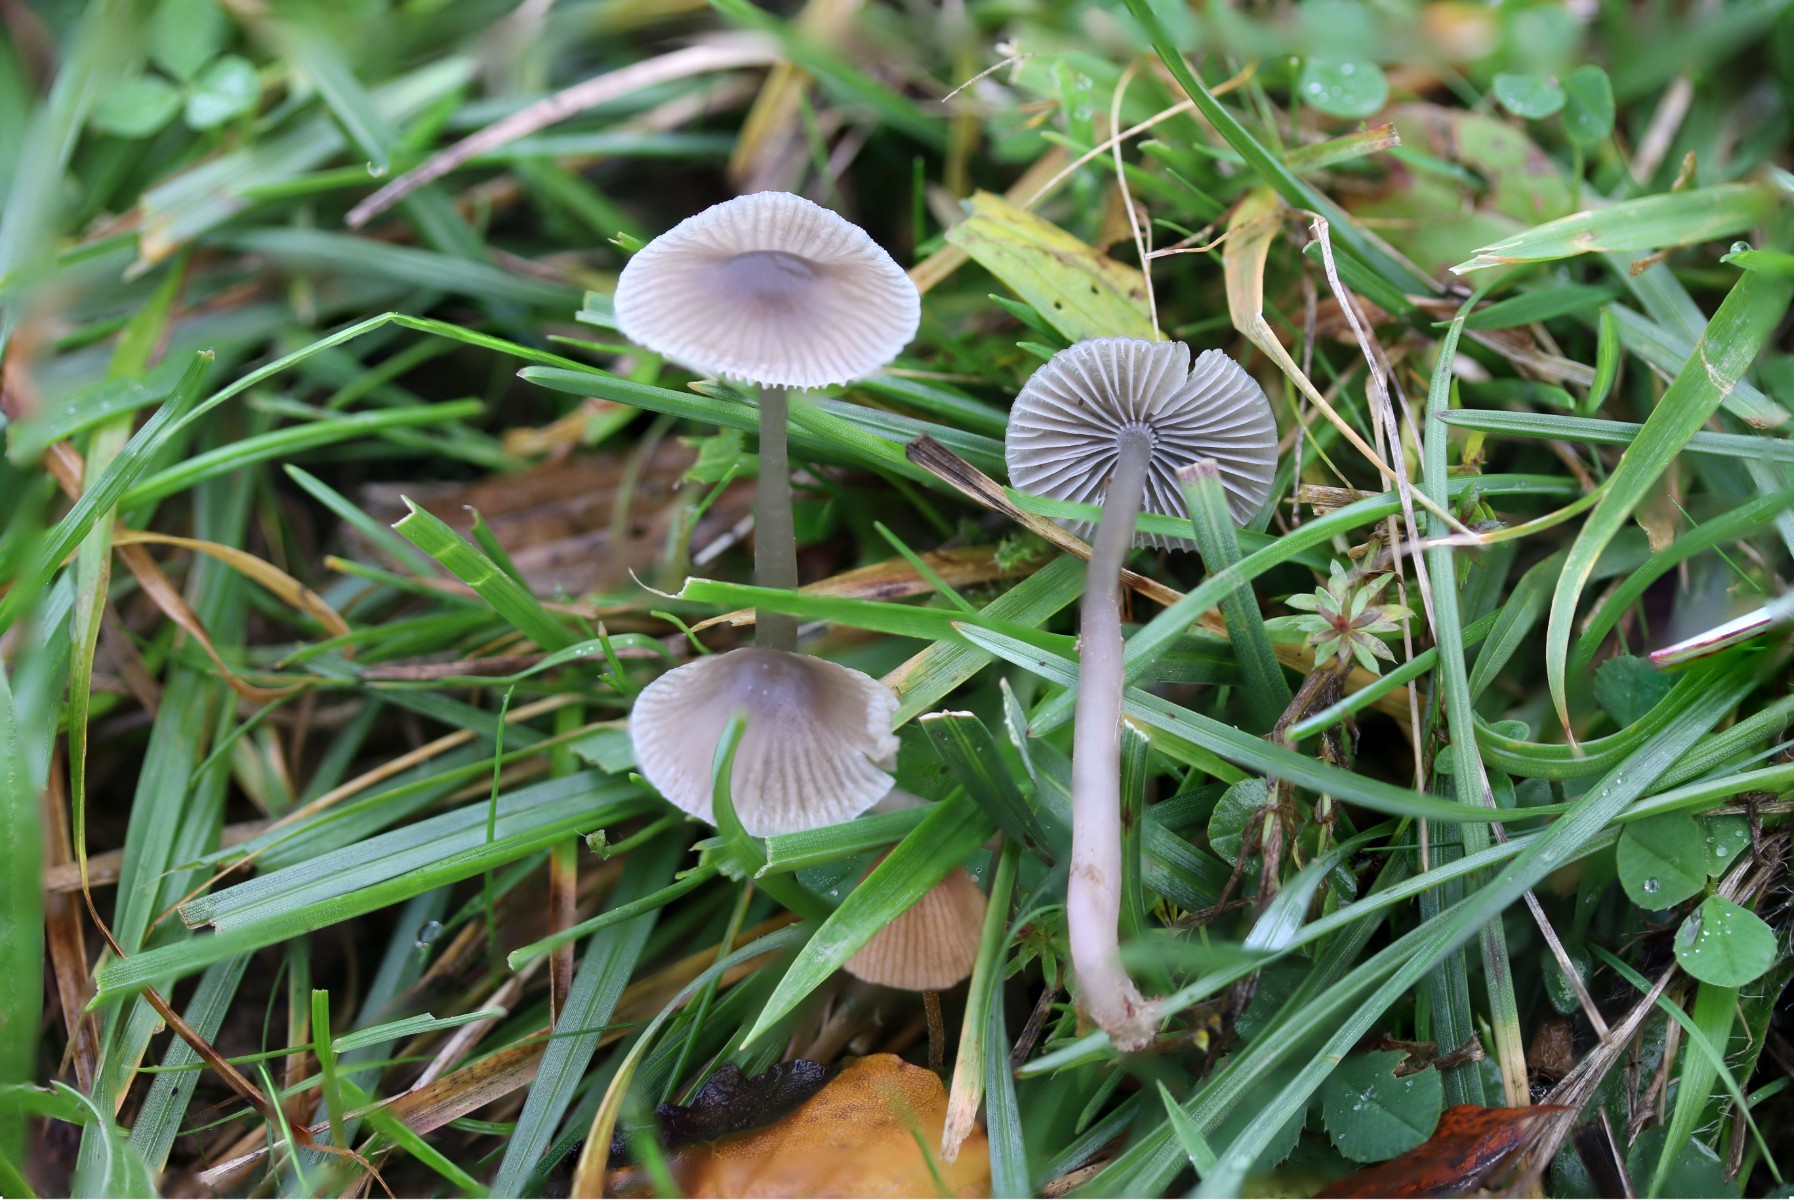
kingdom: Fungi
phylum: Basidiomycota
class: Agaricomycetes
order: Agaricales
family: Mycenaceae
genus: Mycena
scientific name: Mycena leptocephala
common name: klor-huesvamp
